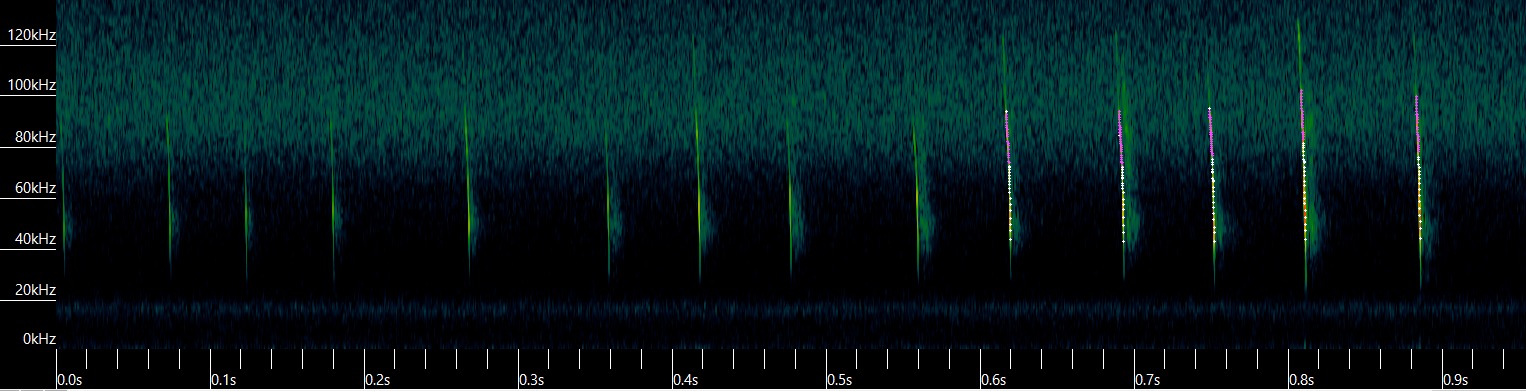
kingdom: Animalia
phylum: Chordata
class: Mammalia
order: Chiroptera
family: Vespertilionidae
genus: Myotis
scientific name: Myotis nattereri
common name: Frynseflagermus
